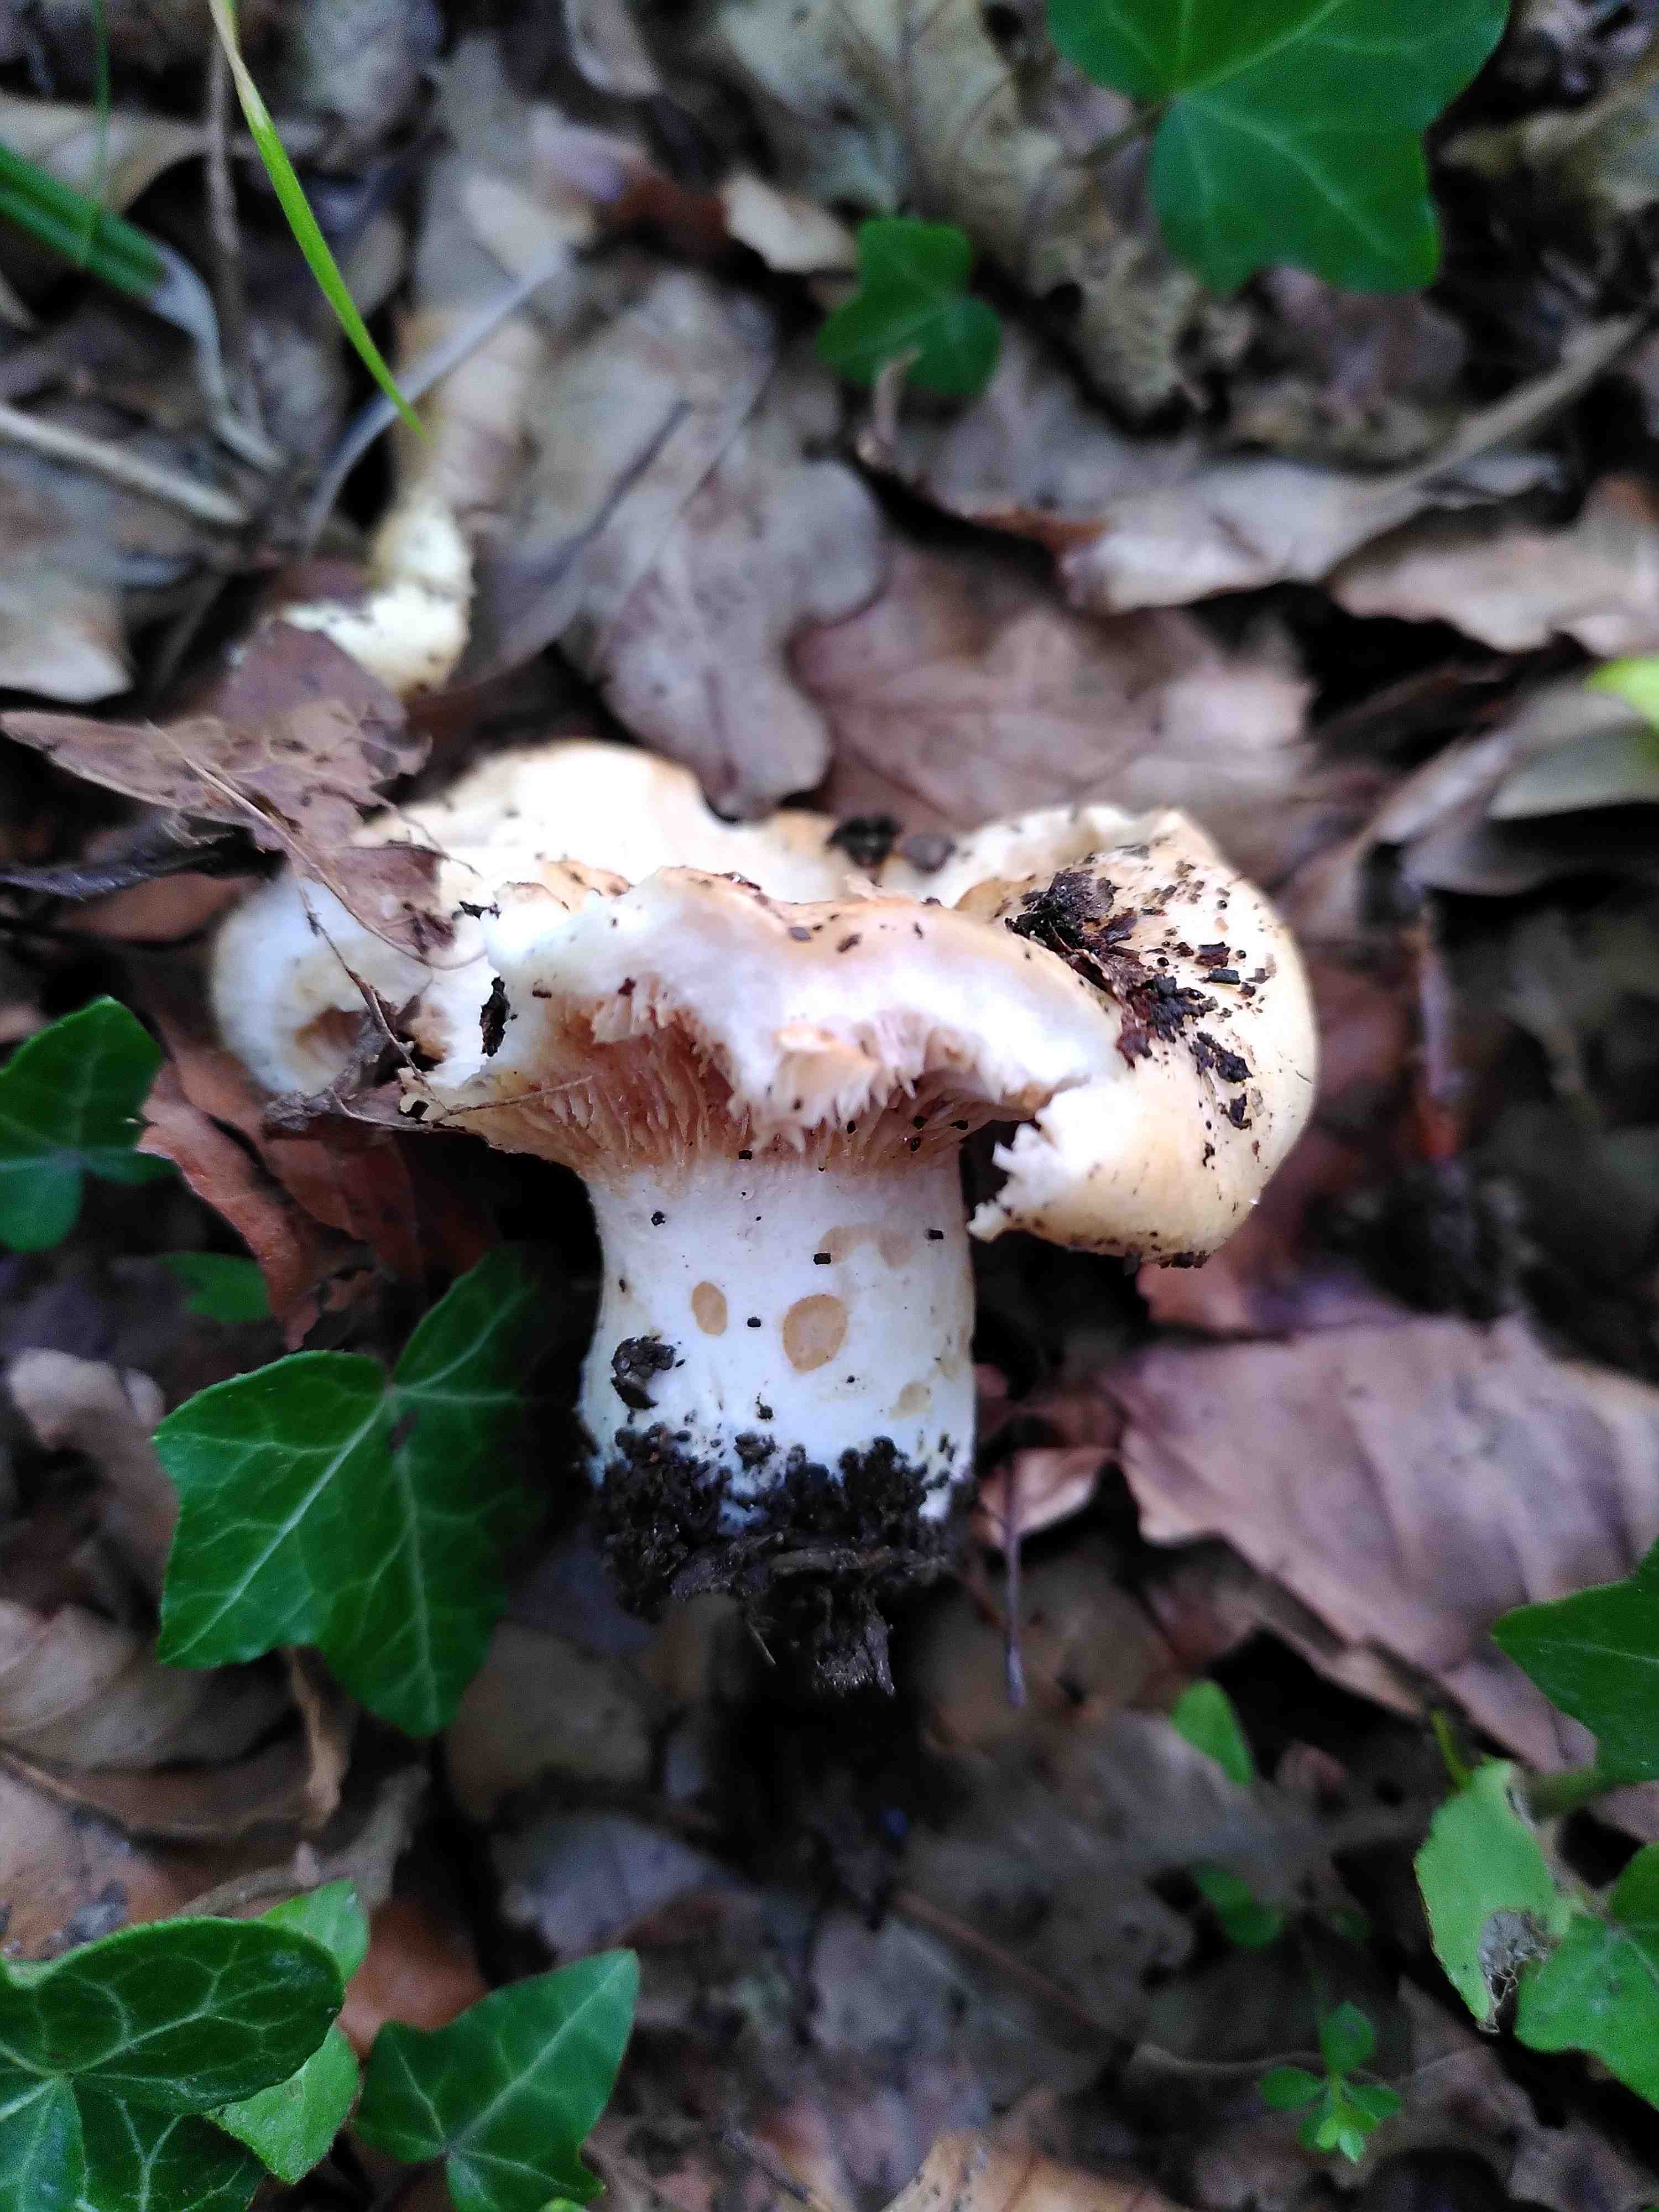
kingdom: Fungi
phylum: Basidiomycota
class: Agaricomycetes
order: Russulales
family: Russulaceae
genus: Lactarius
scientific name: Lactarius acerrimus
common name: brændende mælkehat
